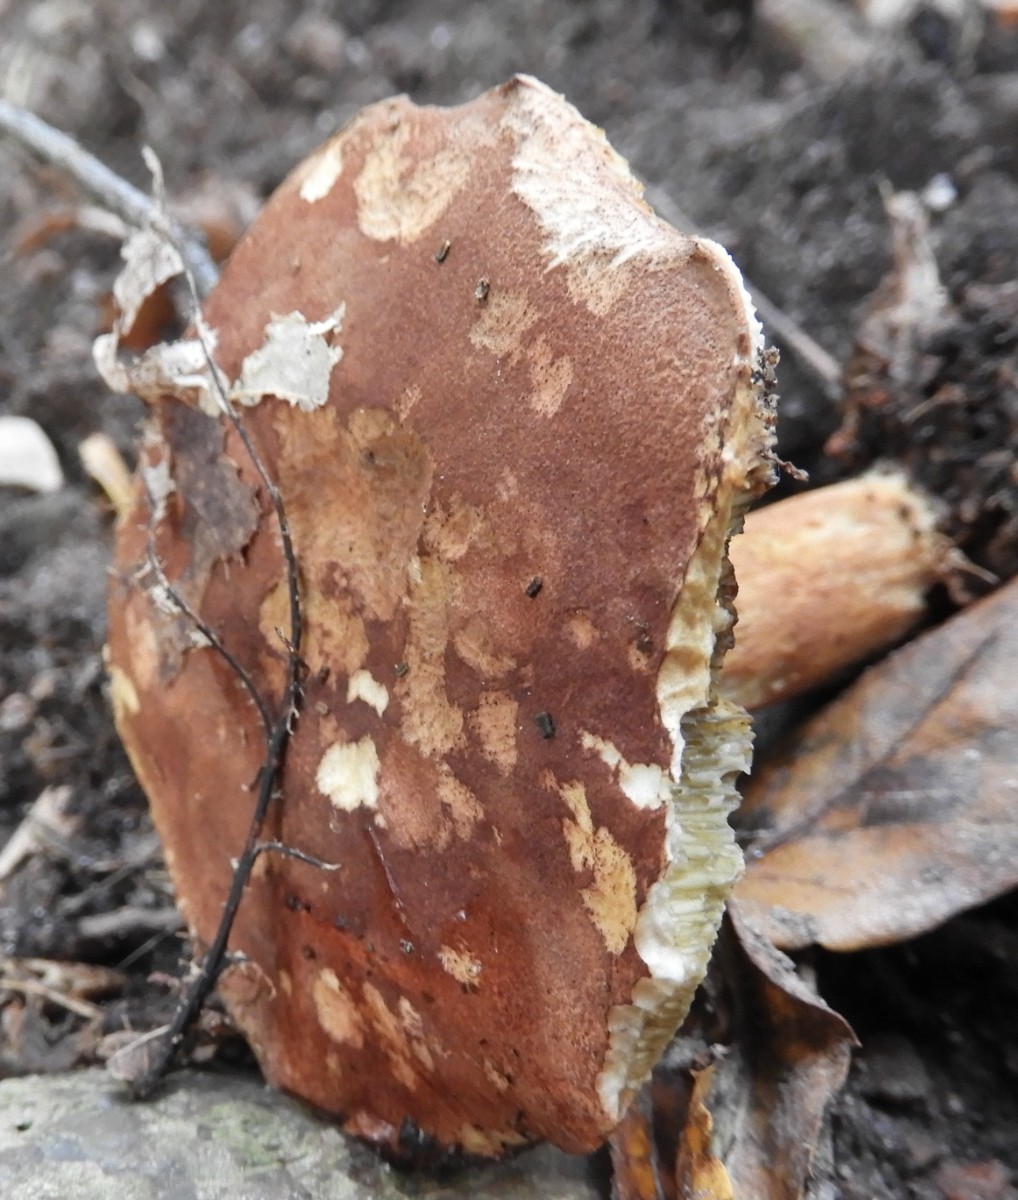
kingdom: Fungi
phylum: Basidiomycota
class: Agaricomycetes
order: Boletales
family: Boletaceae
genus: Imleria
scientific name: Imleria badia
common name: brunstokket rørhat
